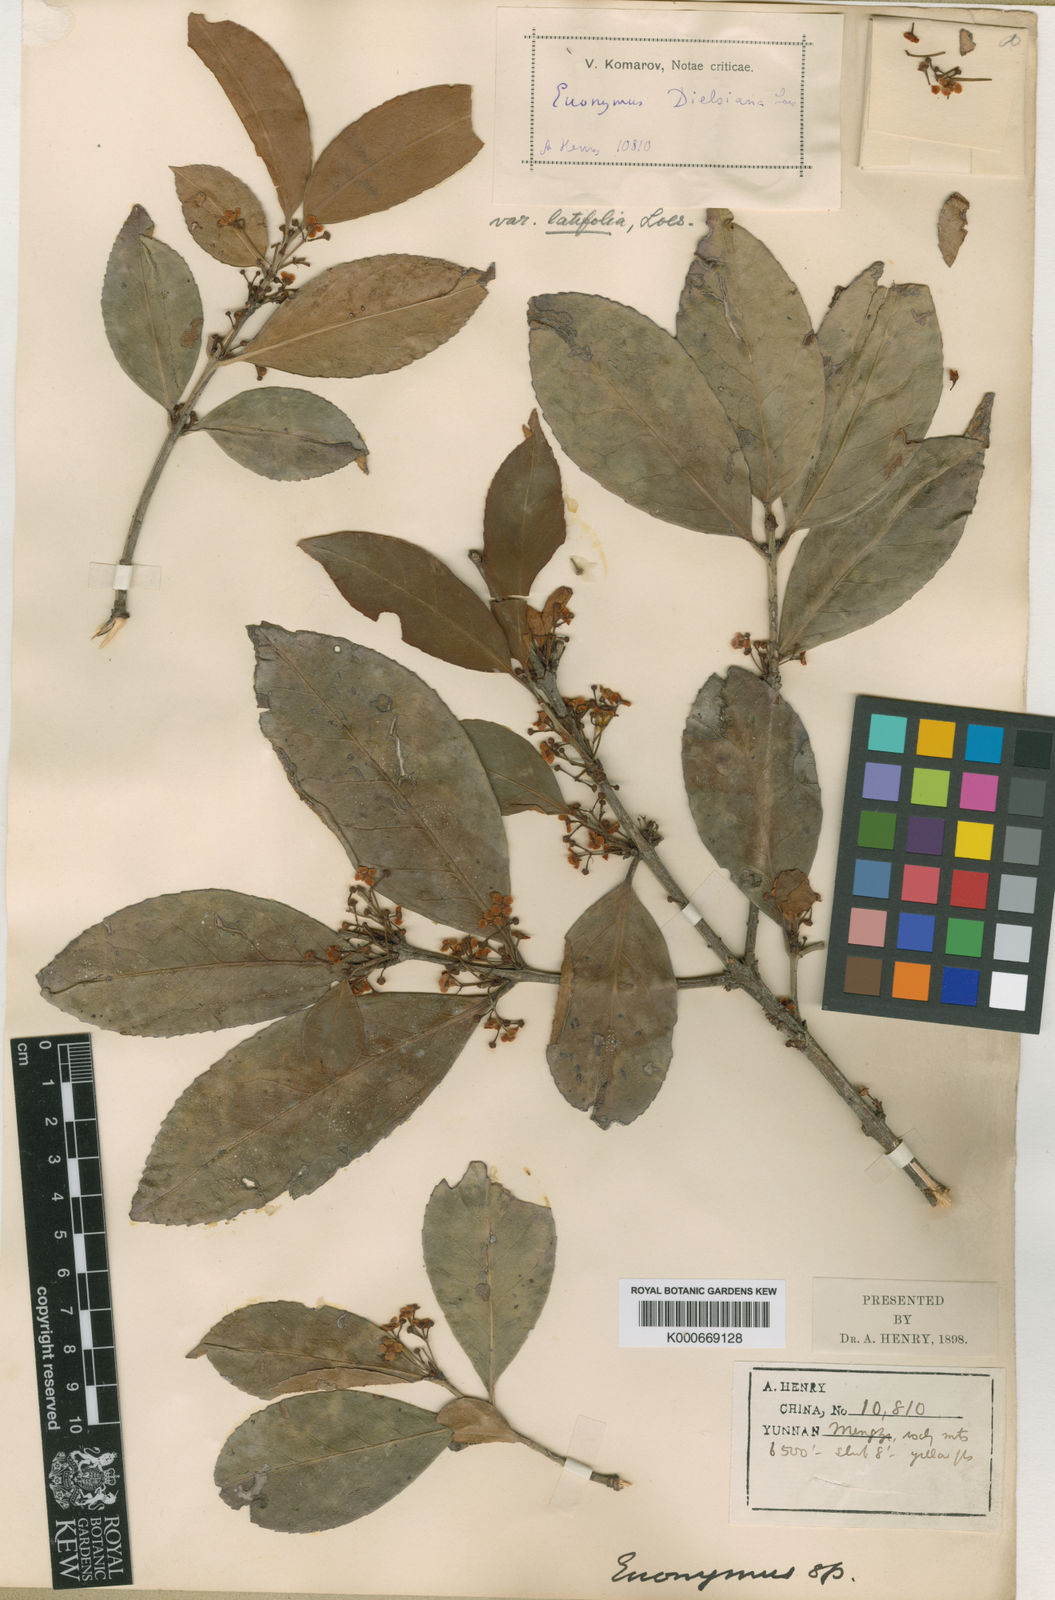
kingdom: Plantae
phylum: Tracheophyta
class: Magnoliopsida
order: Celastrales
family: Celastraceae
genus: Euonymus
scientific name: Euonymus dielsianus
